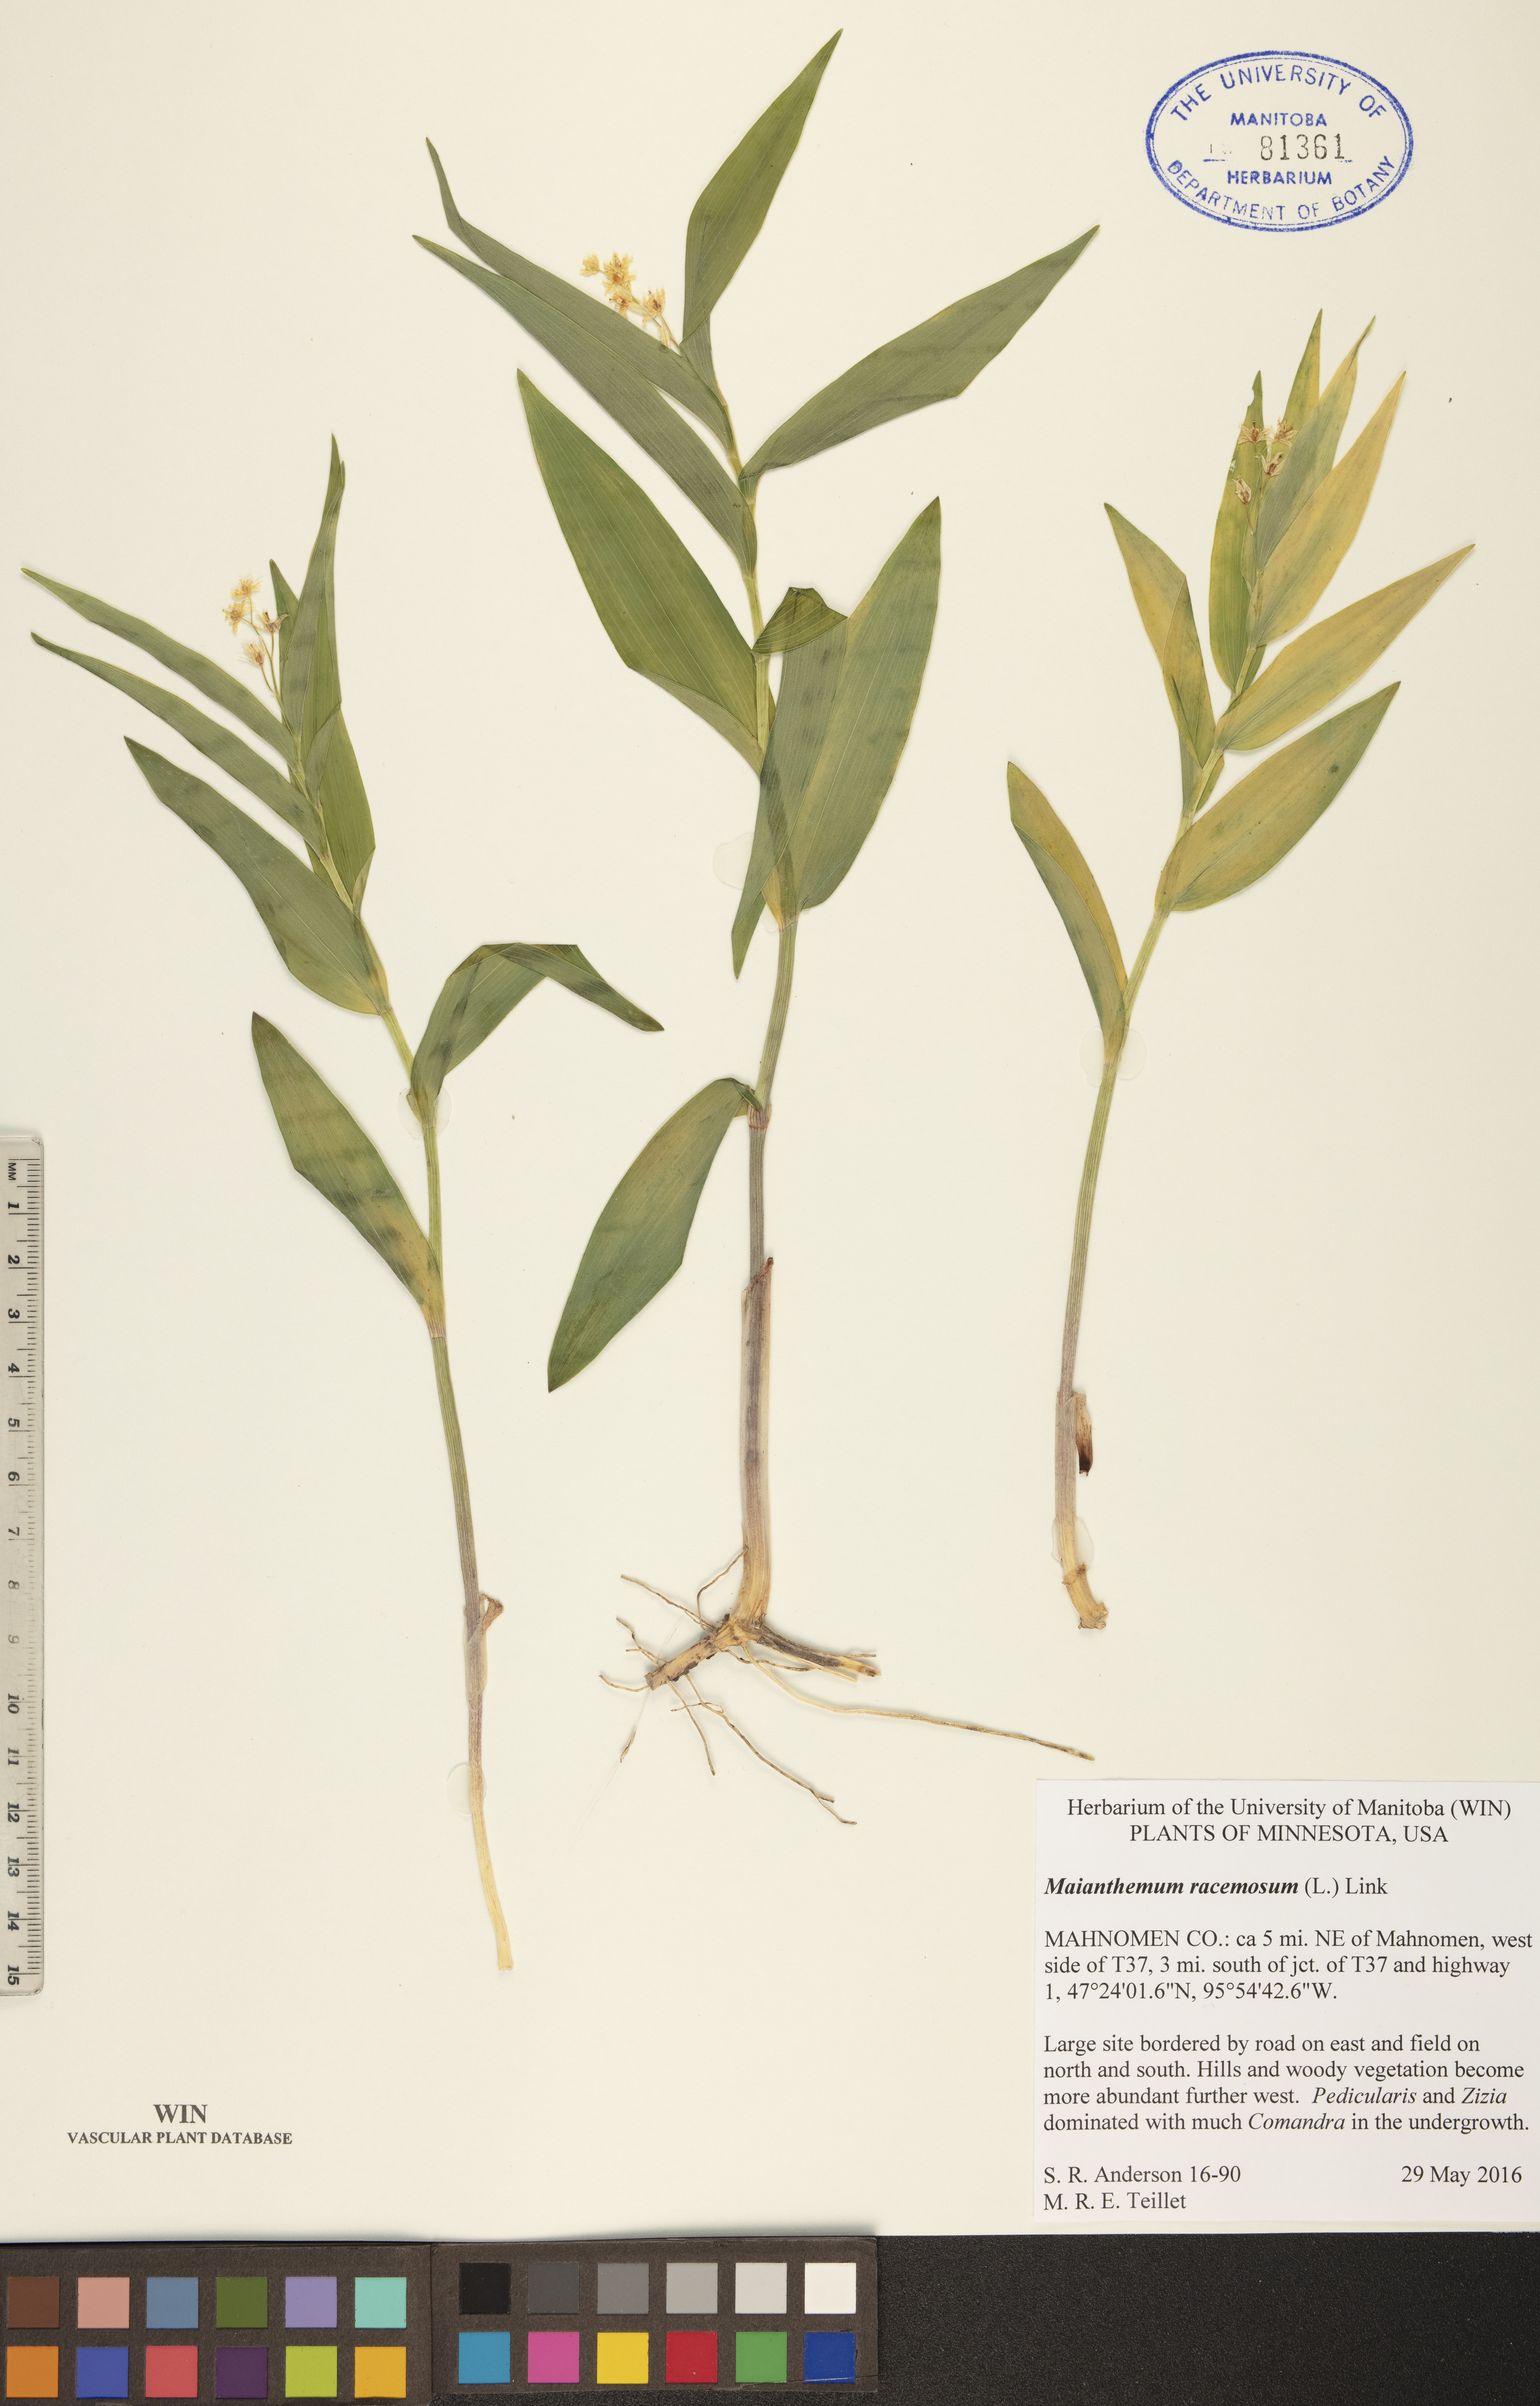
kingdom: Plantae
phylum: Tracheophyta
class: Liliopsida
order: Asparagales
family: Asparagaceae
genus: Maianthemum
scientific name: Maianthemum racemosum
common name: False spikenard
